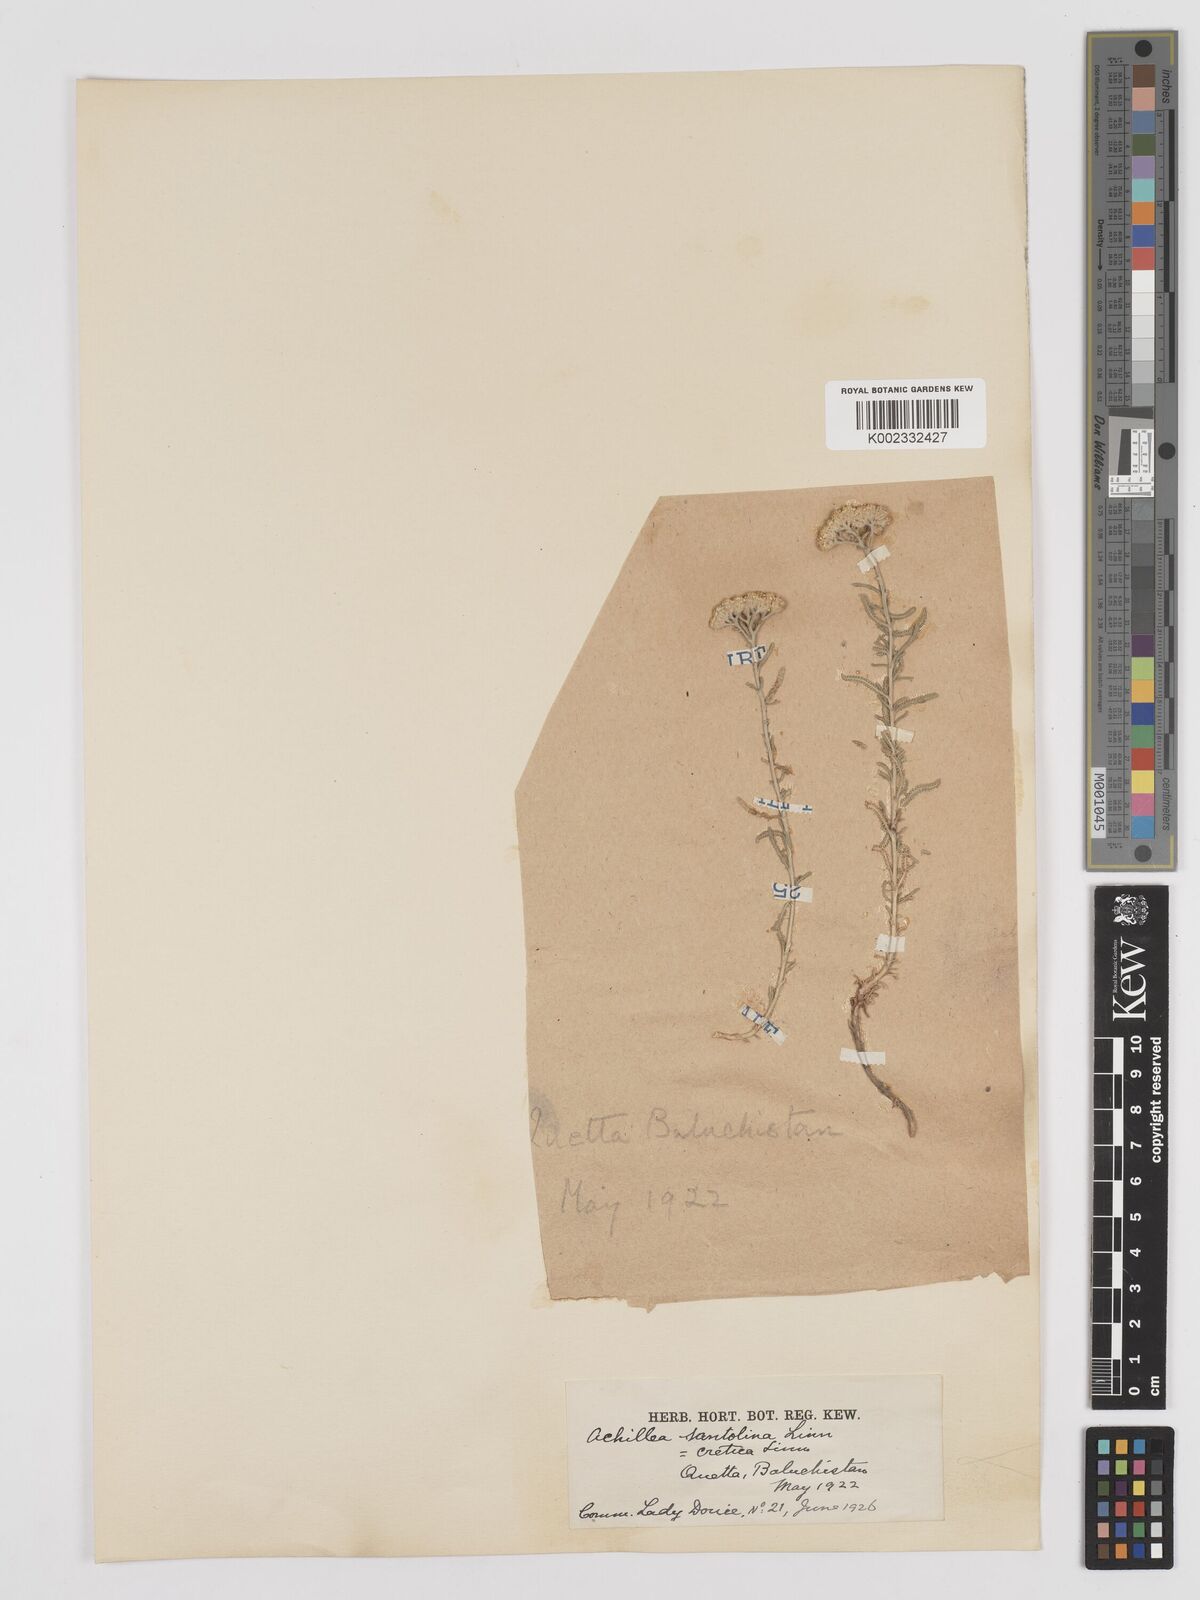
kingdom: Plantae
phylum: Tracheophyta
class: Magnoliopsida
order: Asterales
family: Asteraceae
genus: Achillea
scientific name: Achillea tenuifolia
